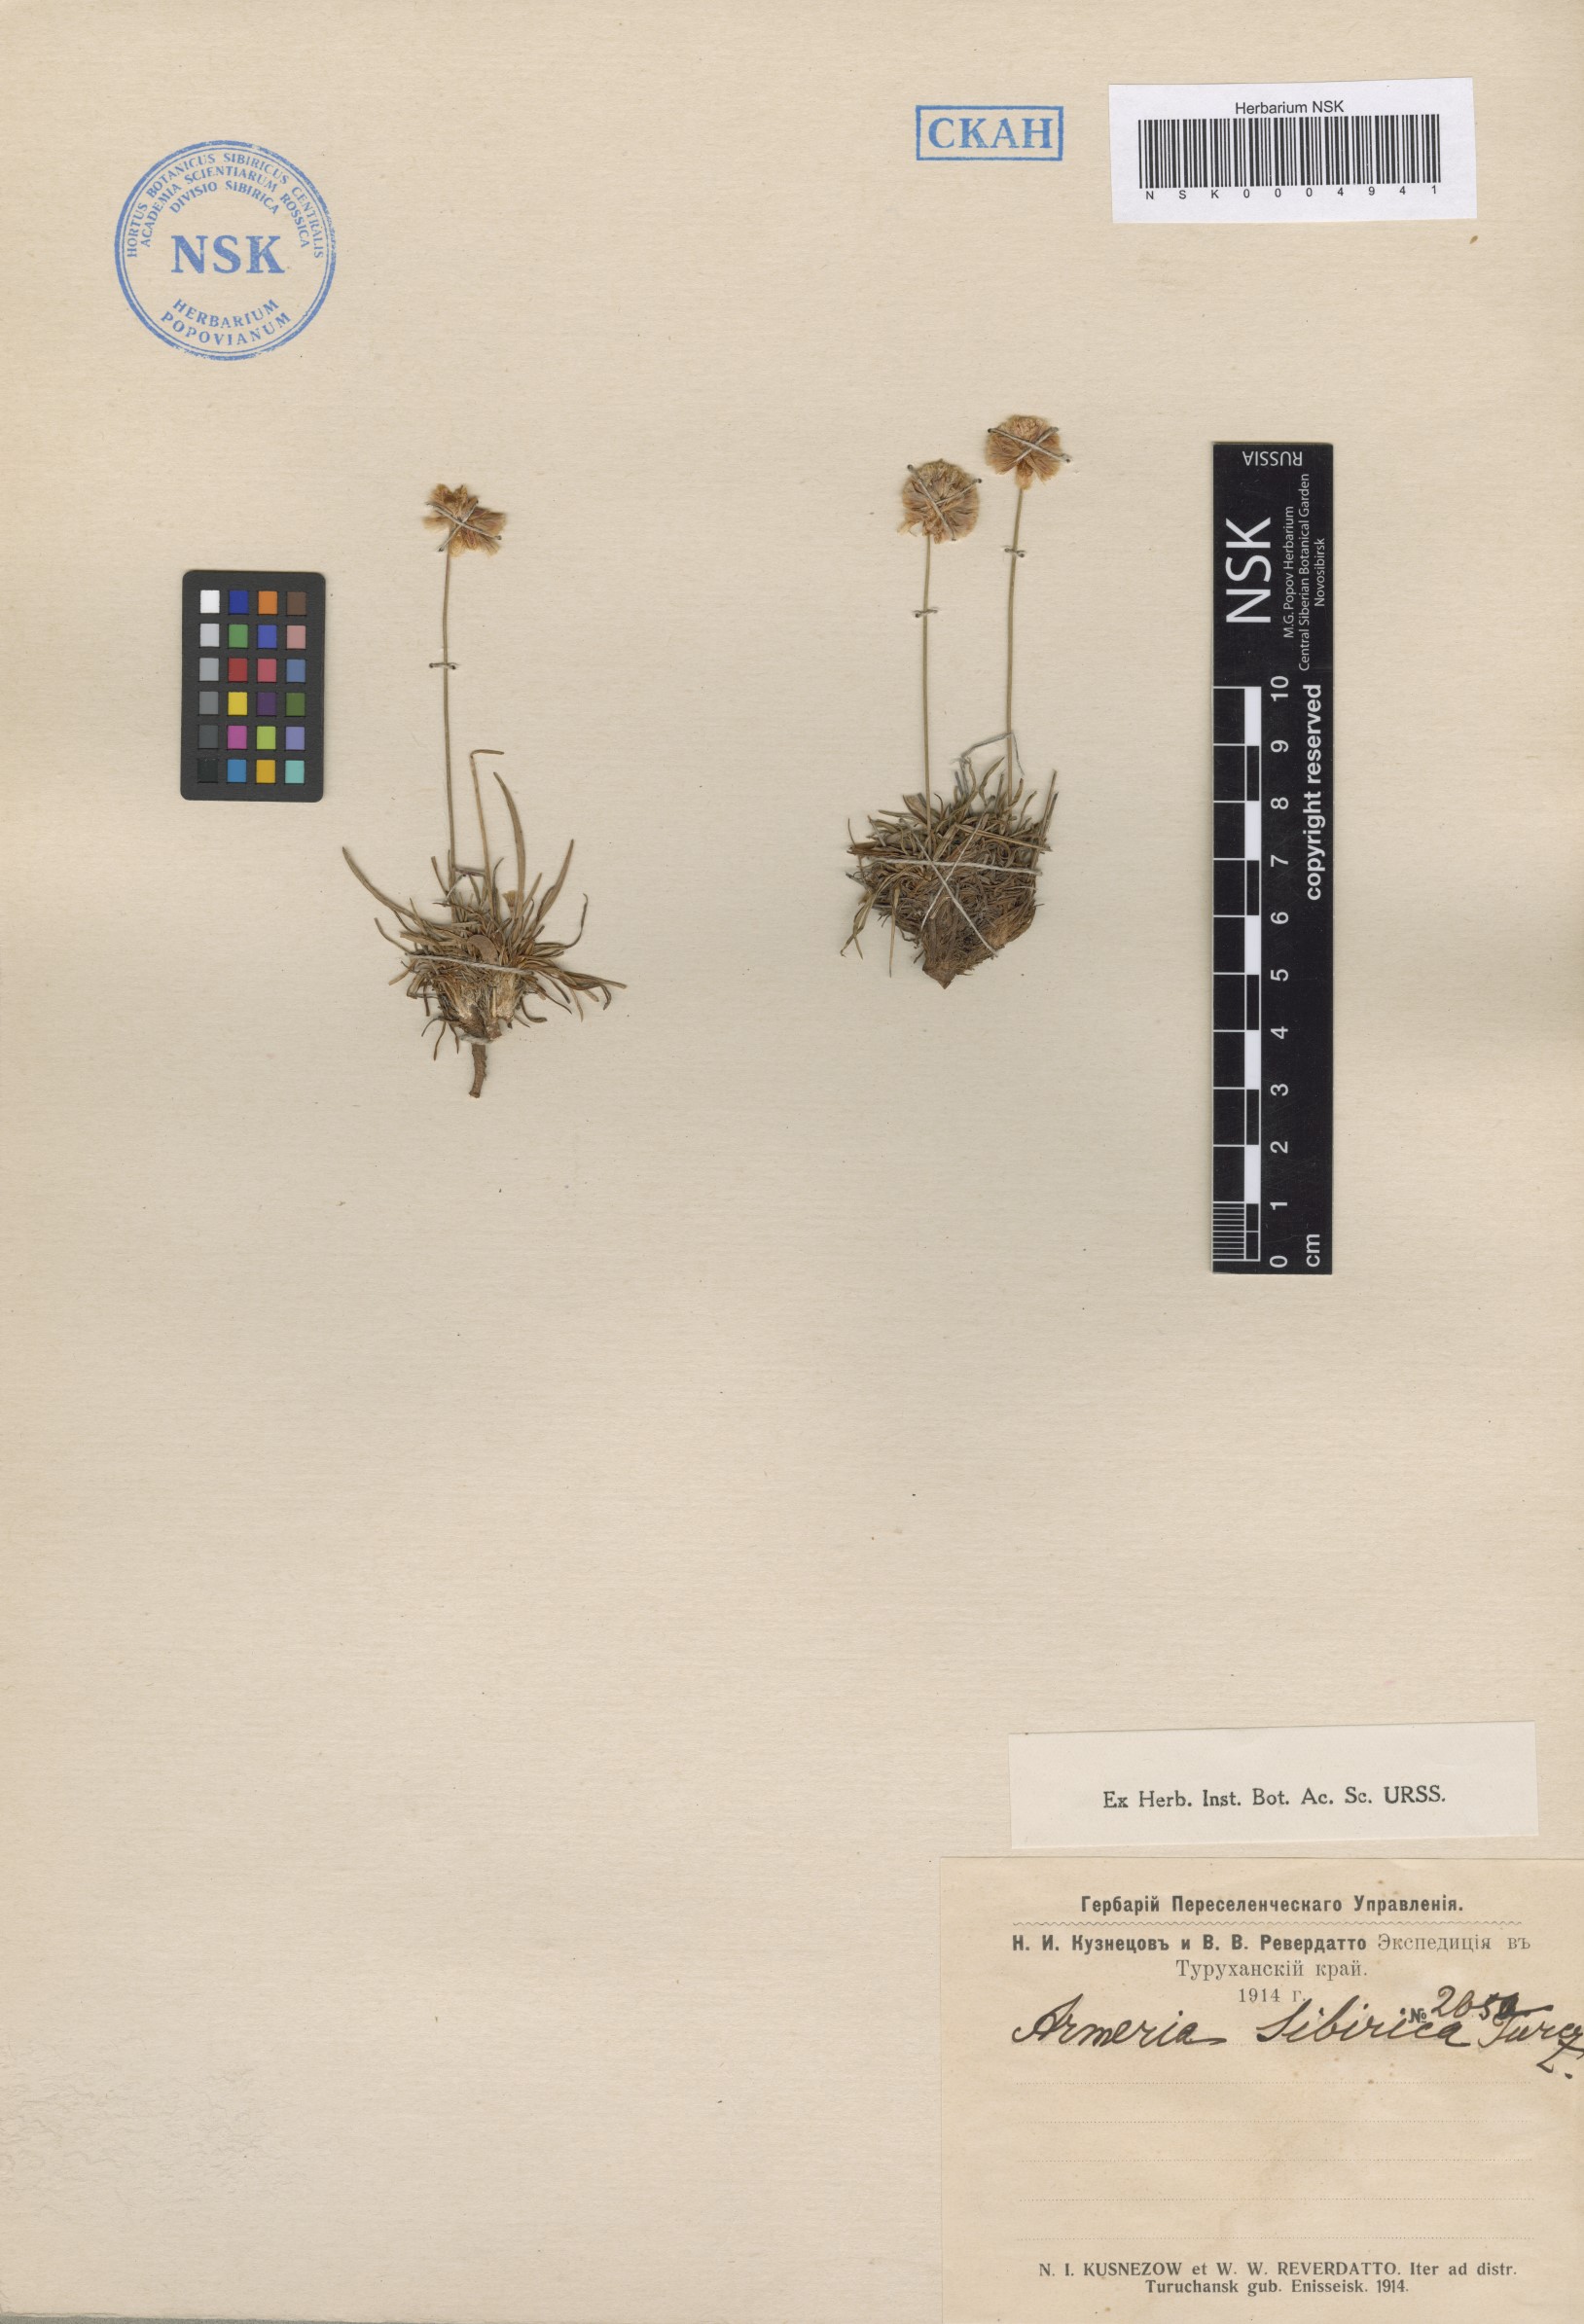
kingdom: Plantae
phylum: Tracheophyta
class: Magnoliopsida
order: Caryophyllales
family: Plumbaginaceae
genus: Armeria
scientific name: Armeria maritima
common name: Thrift
